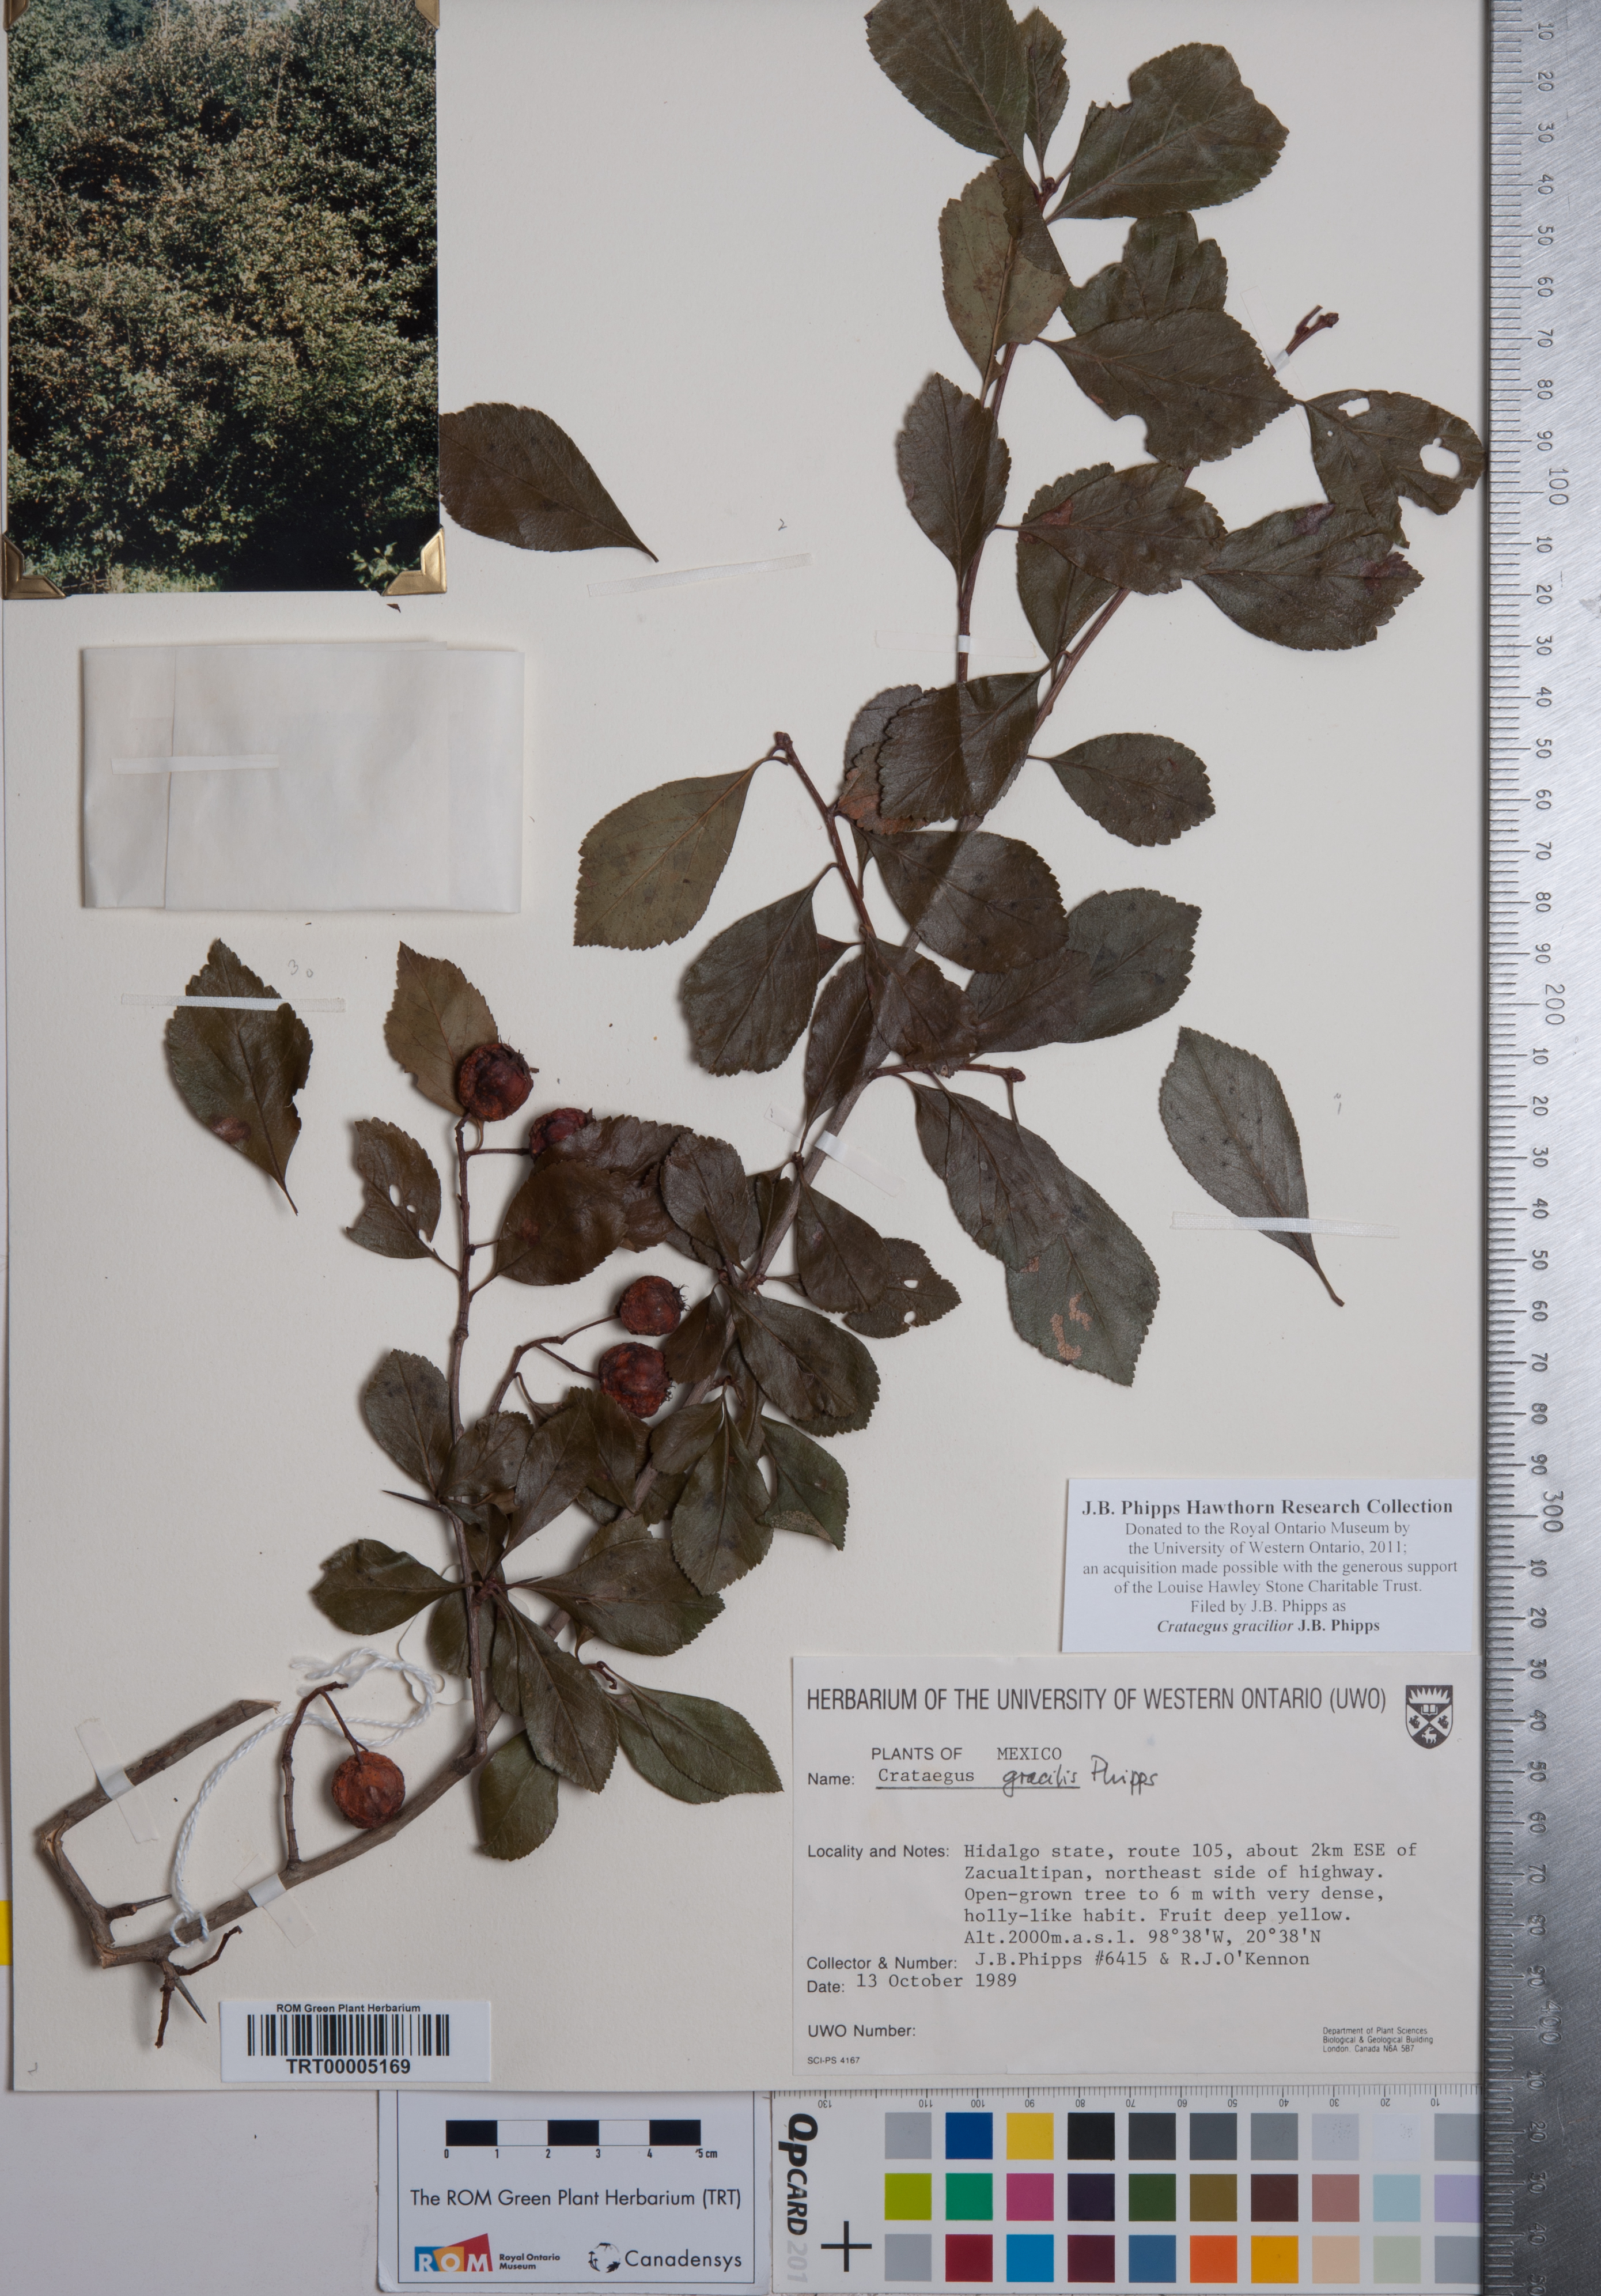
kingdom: Plantae
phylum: Tracheophyta
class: Magnoliopsida
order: Rosales
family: Rosaceae
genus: Crataegus
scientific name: Crataegus gracilior
